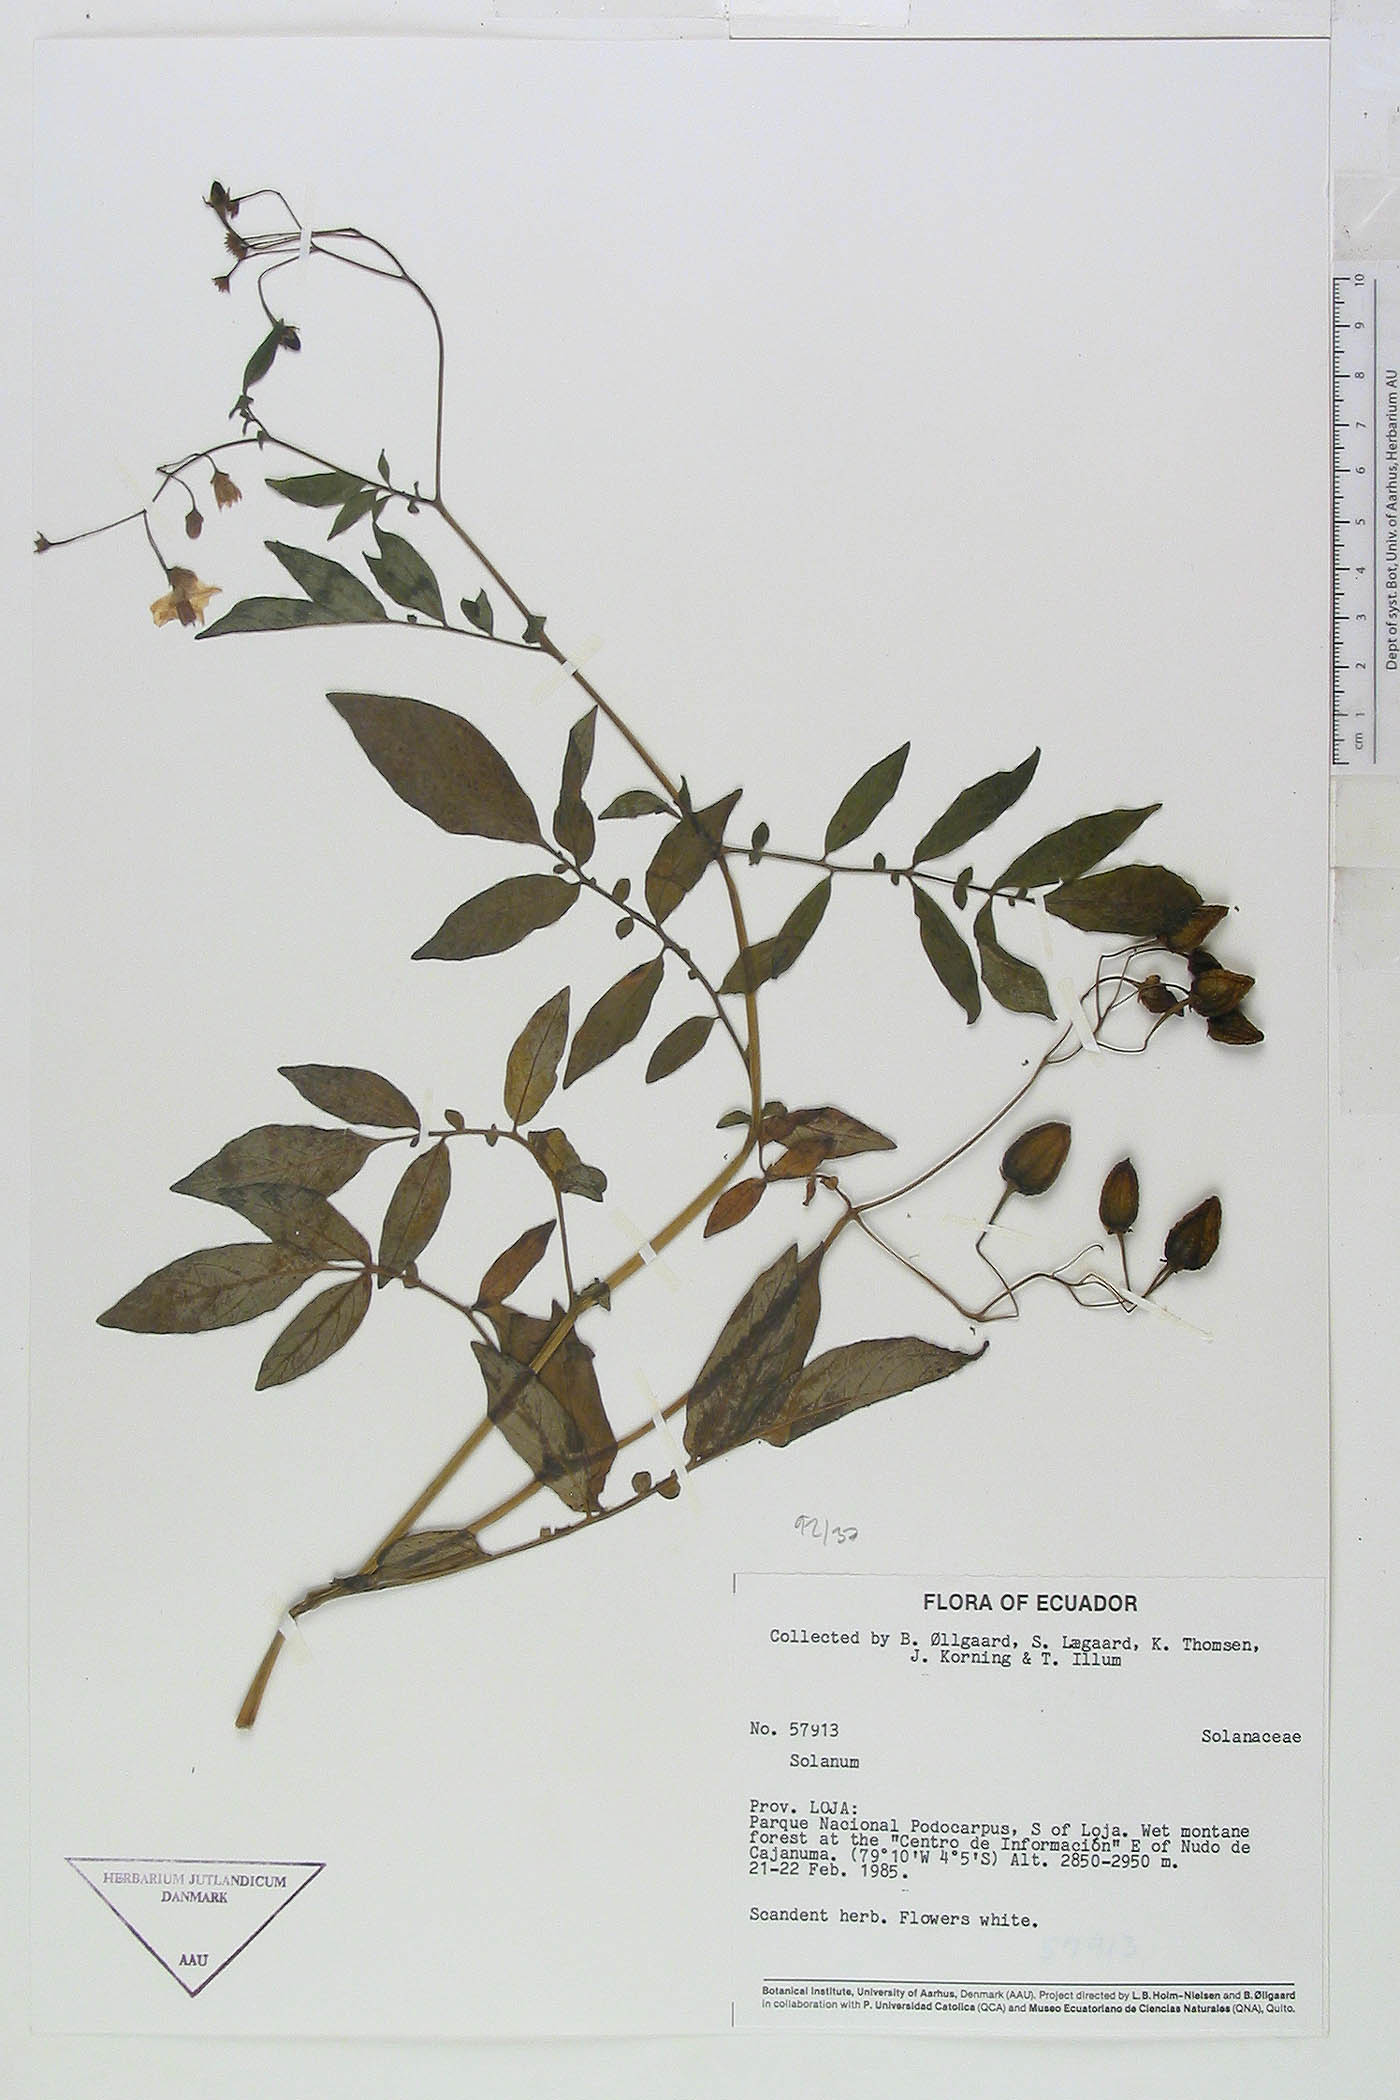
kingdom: Plantae
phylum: Tracheophyta
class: Magnoliopsida
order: Solanales
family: Solanaceae
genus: Solanum
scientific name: Solanum colombianum
